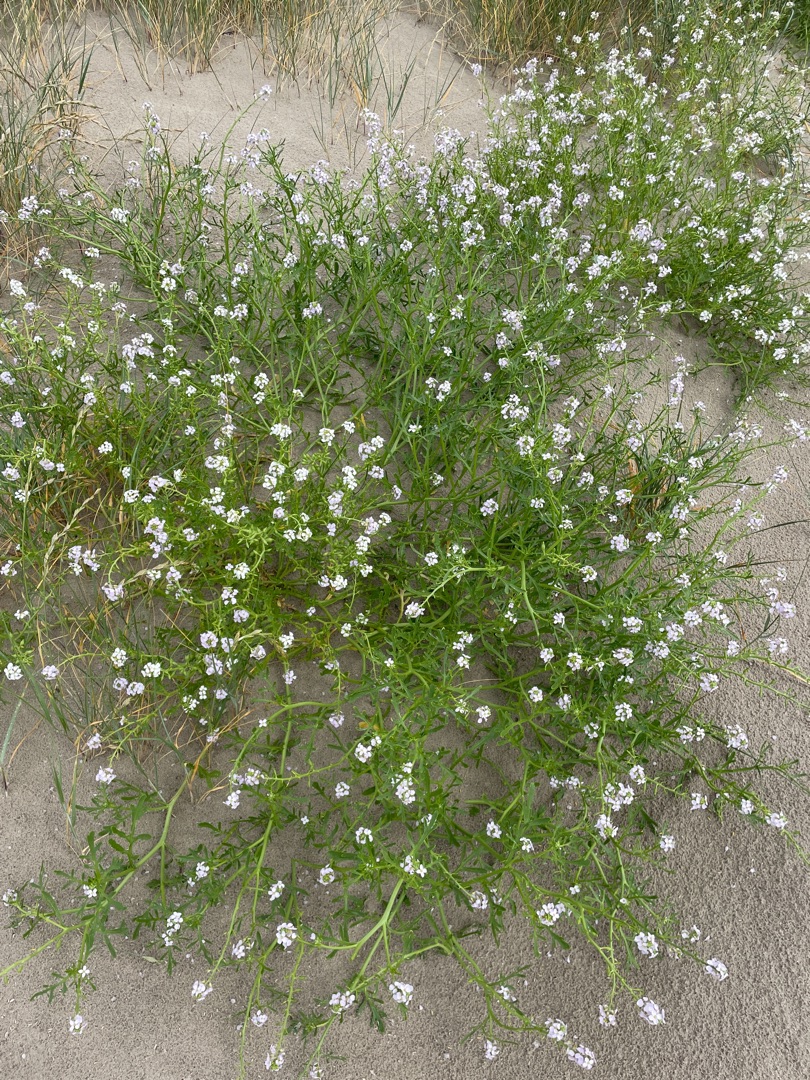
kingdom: Plantae
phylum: Tracheophyta
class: Magnoliopsida
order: Brassicales
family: Brassicaceae
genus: Cakile
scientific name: Cakile maritima
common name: Strandsennep
